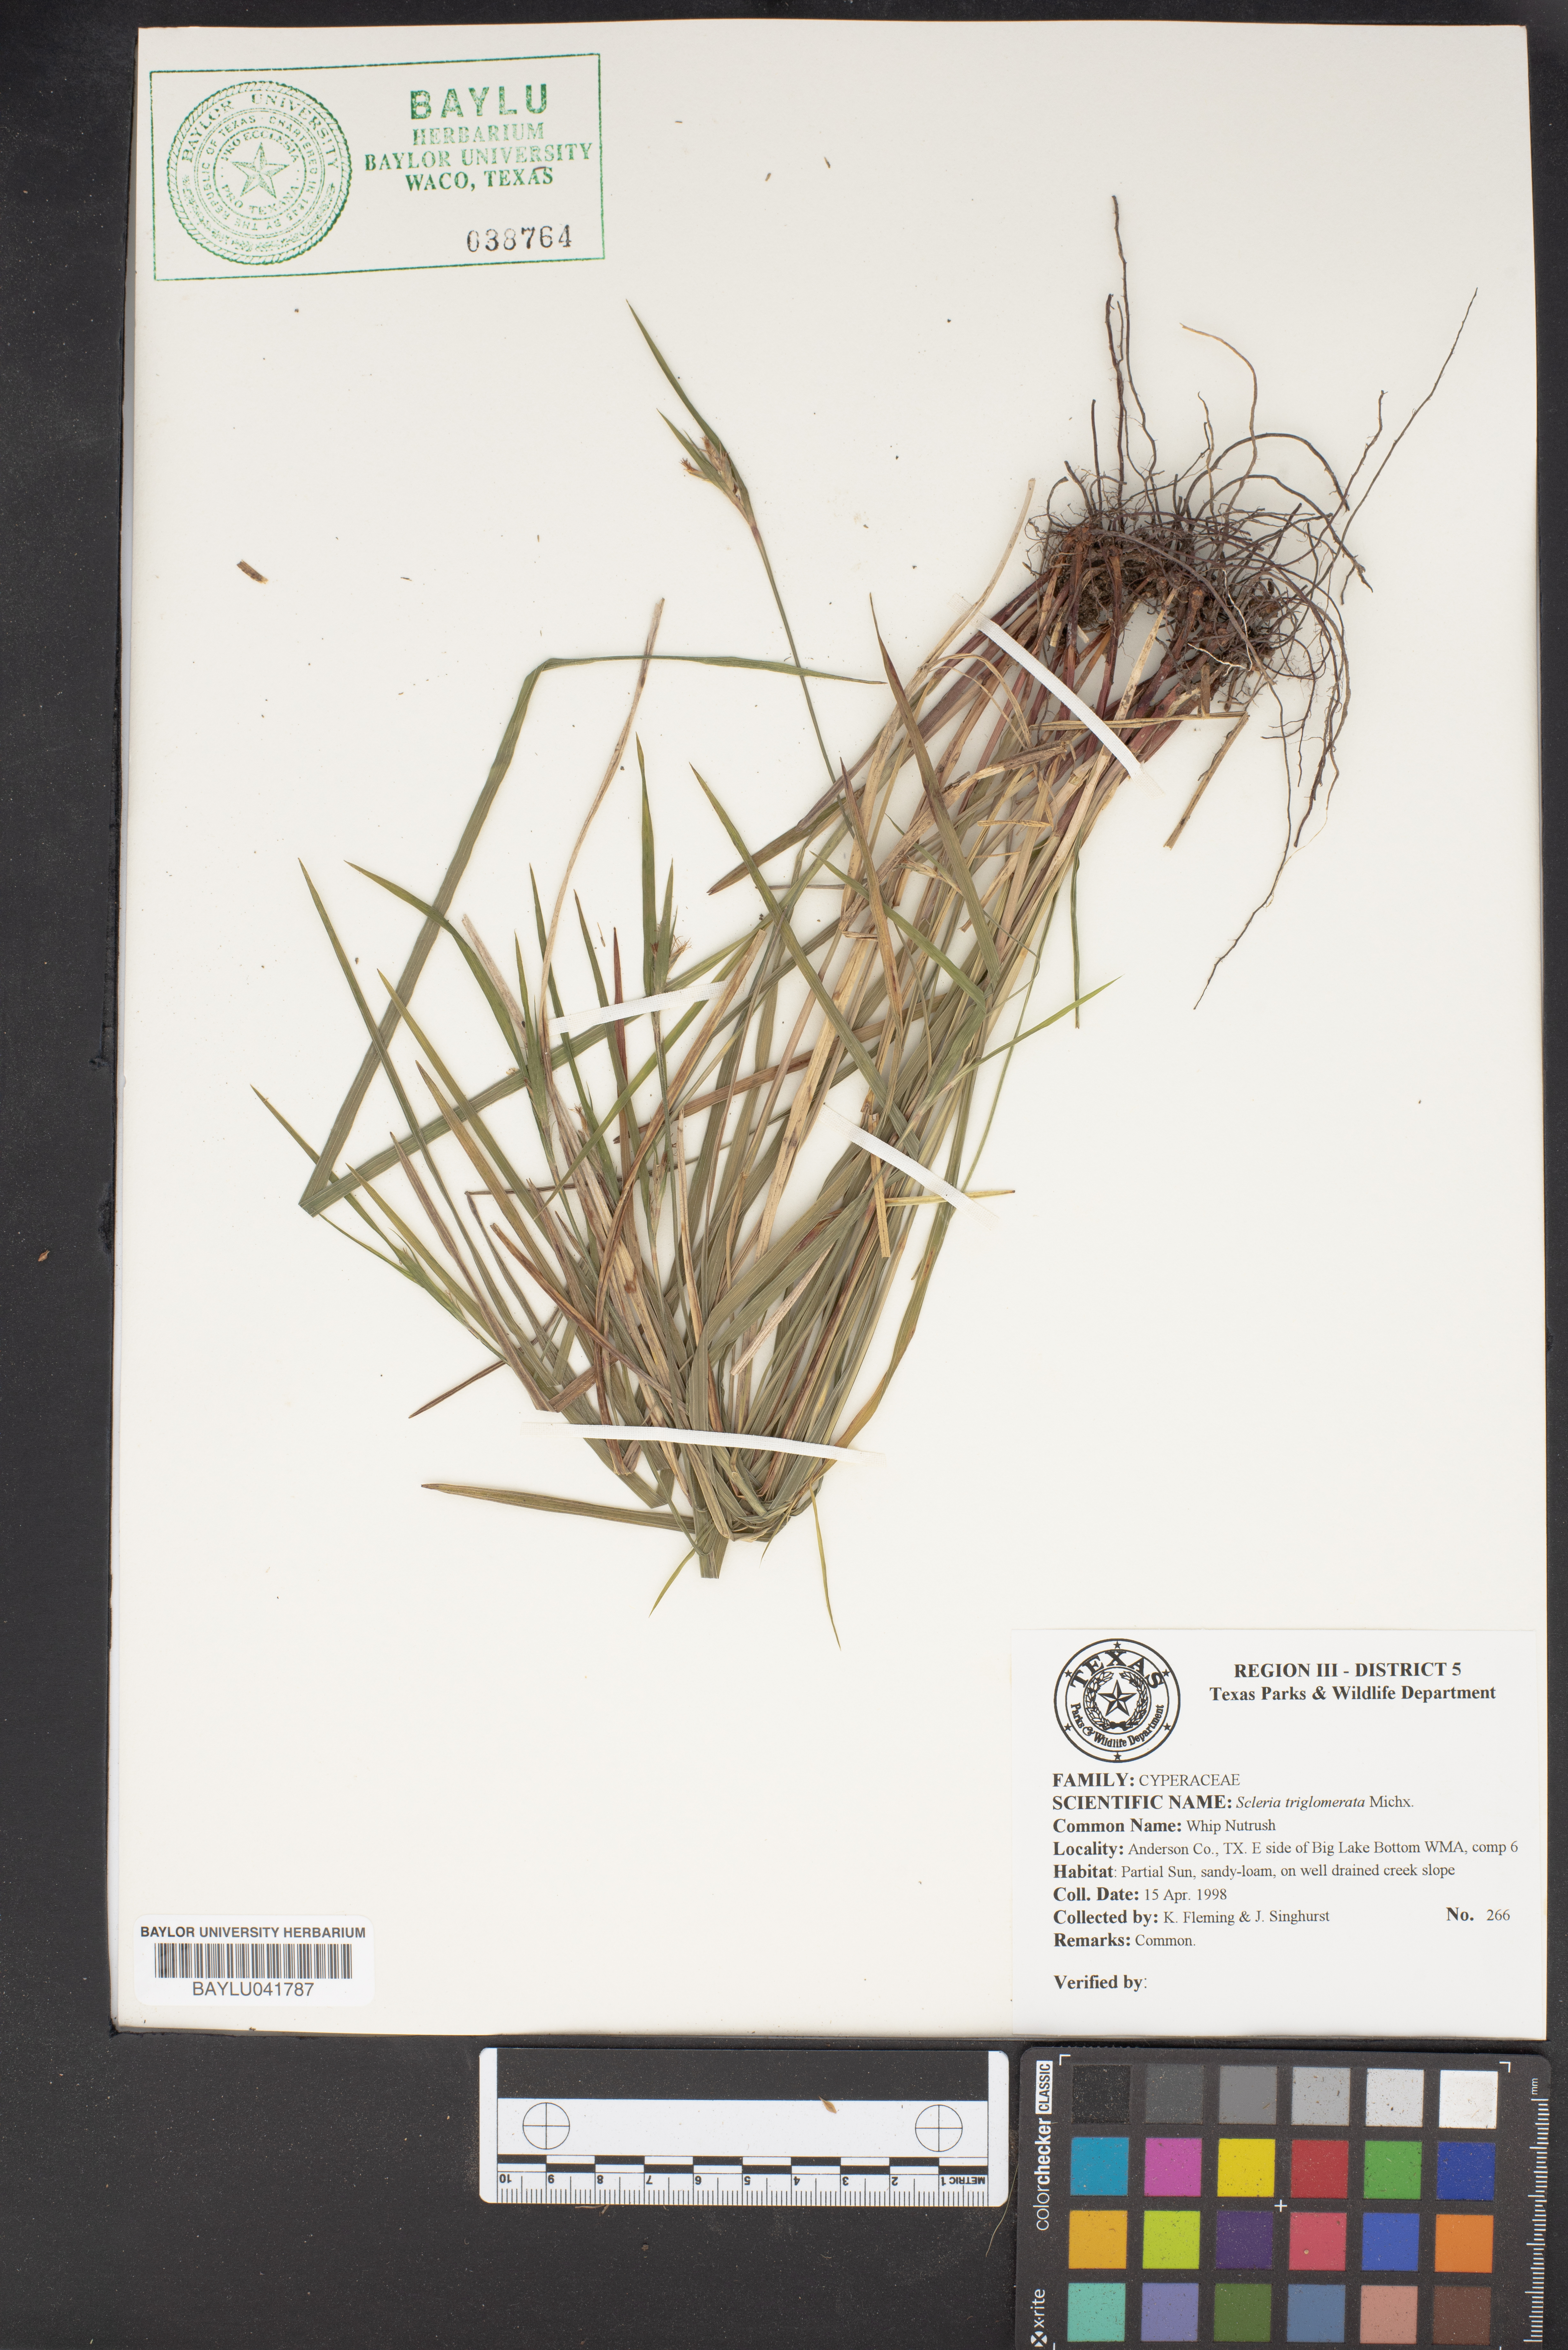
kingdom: Plantae
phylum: Tracheophyta
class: Liliopsida
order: Poales
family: Cyperaceae
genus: Scleria
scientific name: Scleria triglomerata
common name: Whip nutrush
